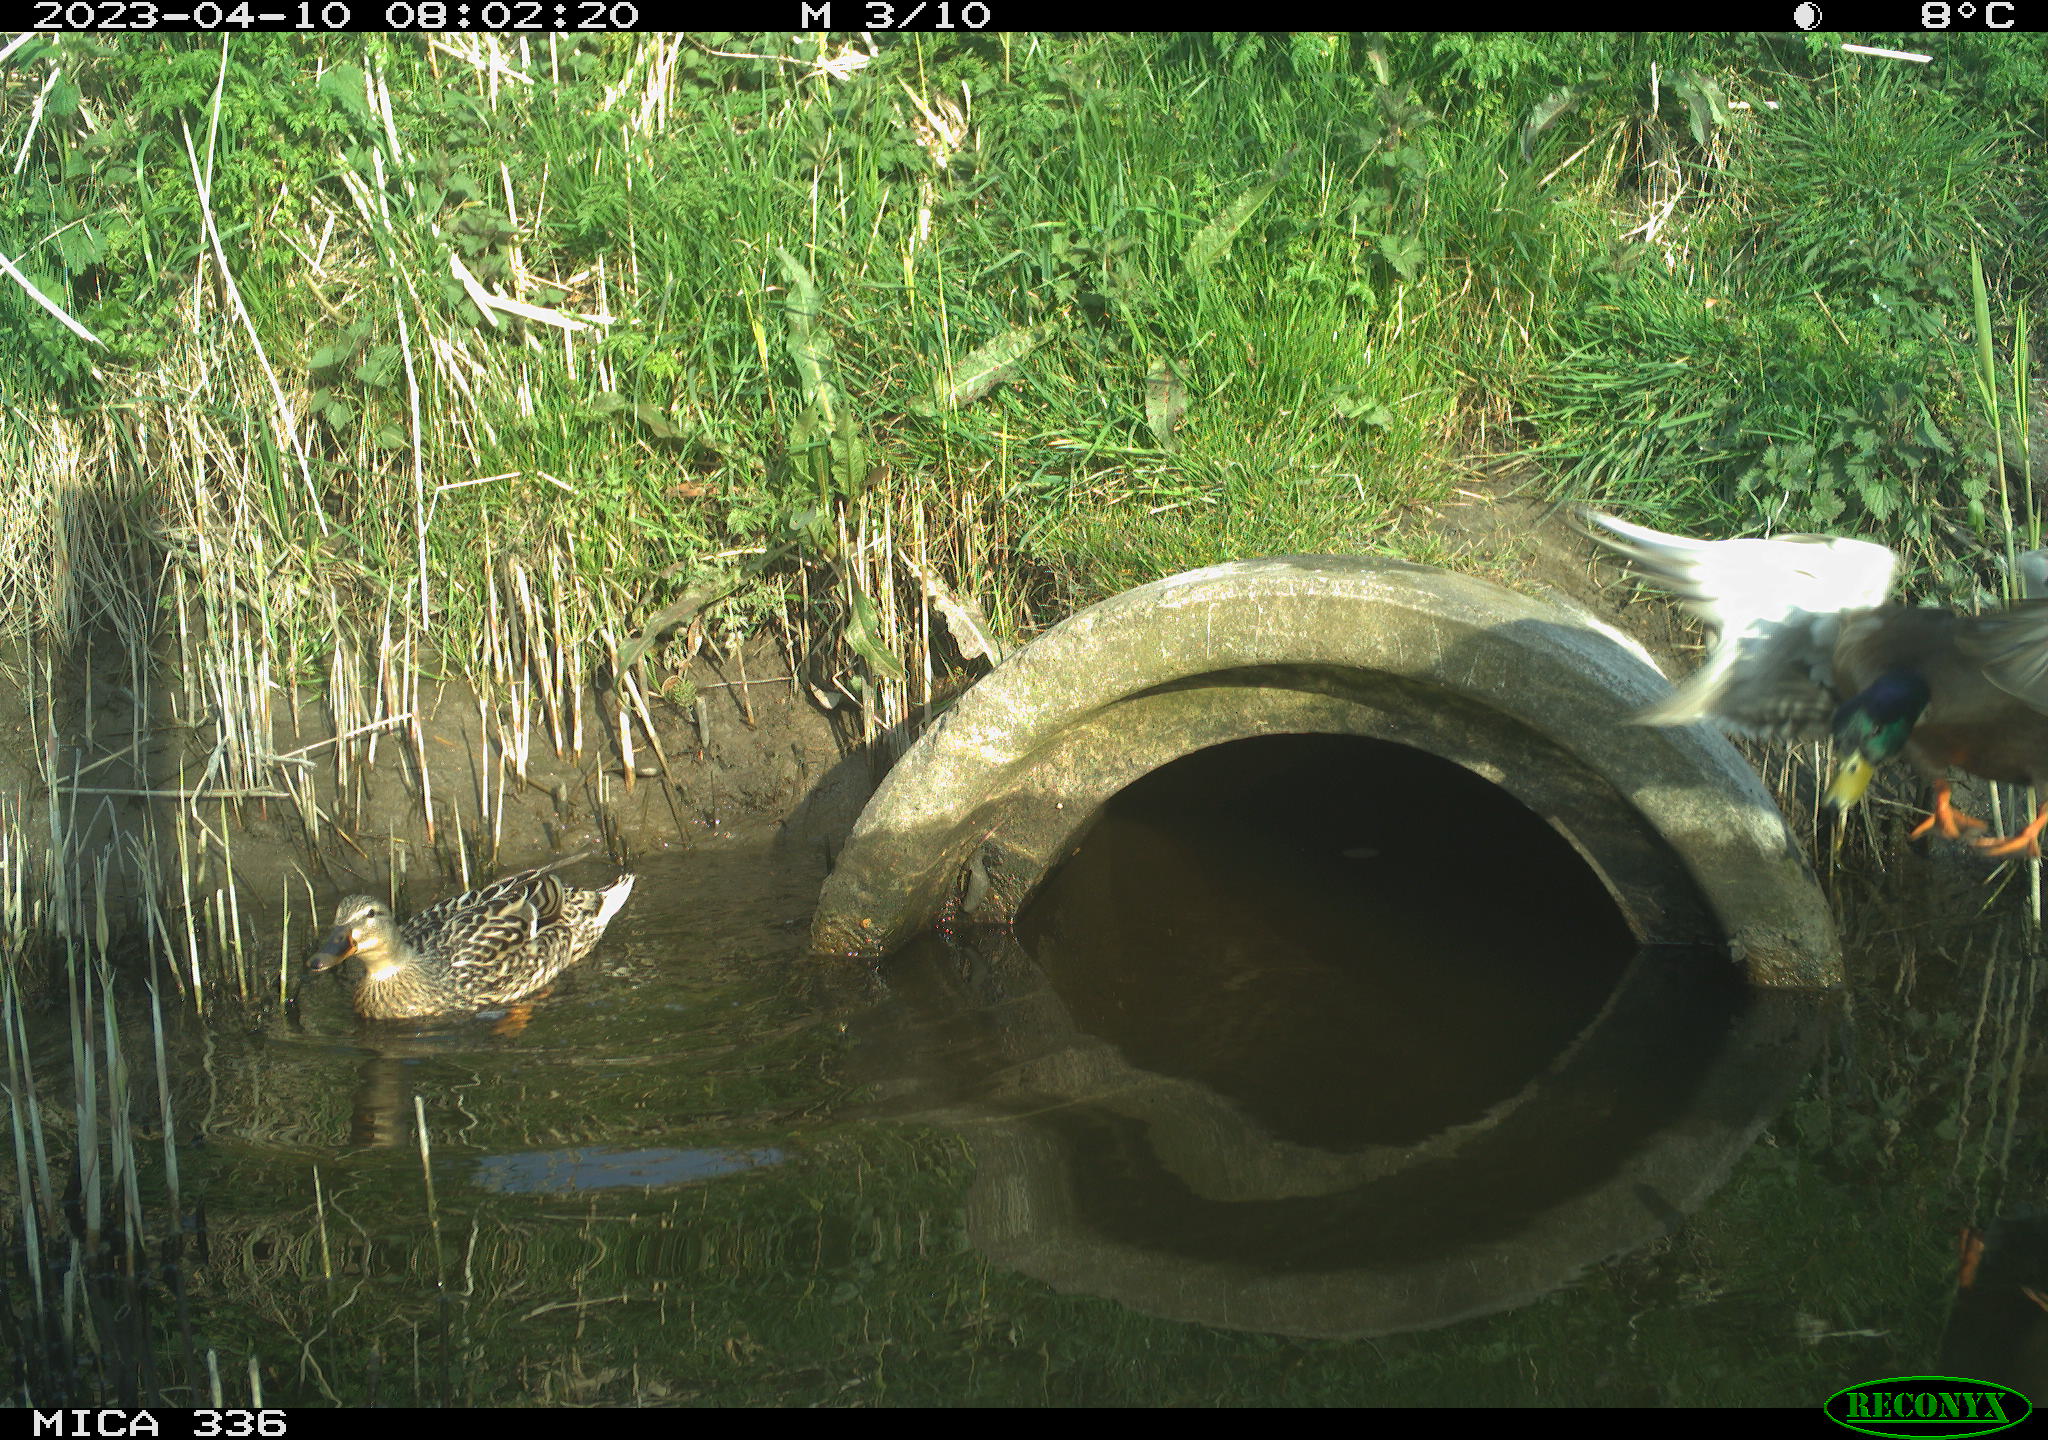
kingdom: Animalia
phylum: Chordata
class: Aves
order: Anseriformes
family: Anatidae
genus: Anas
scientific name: Anas
